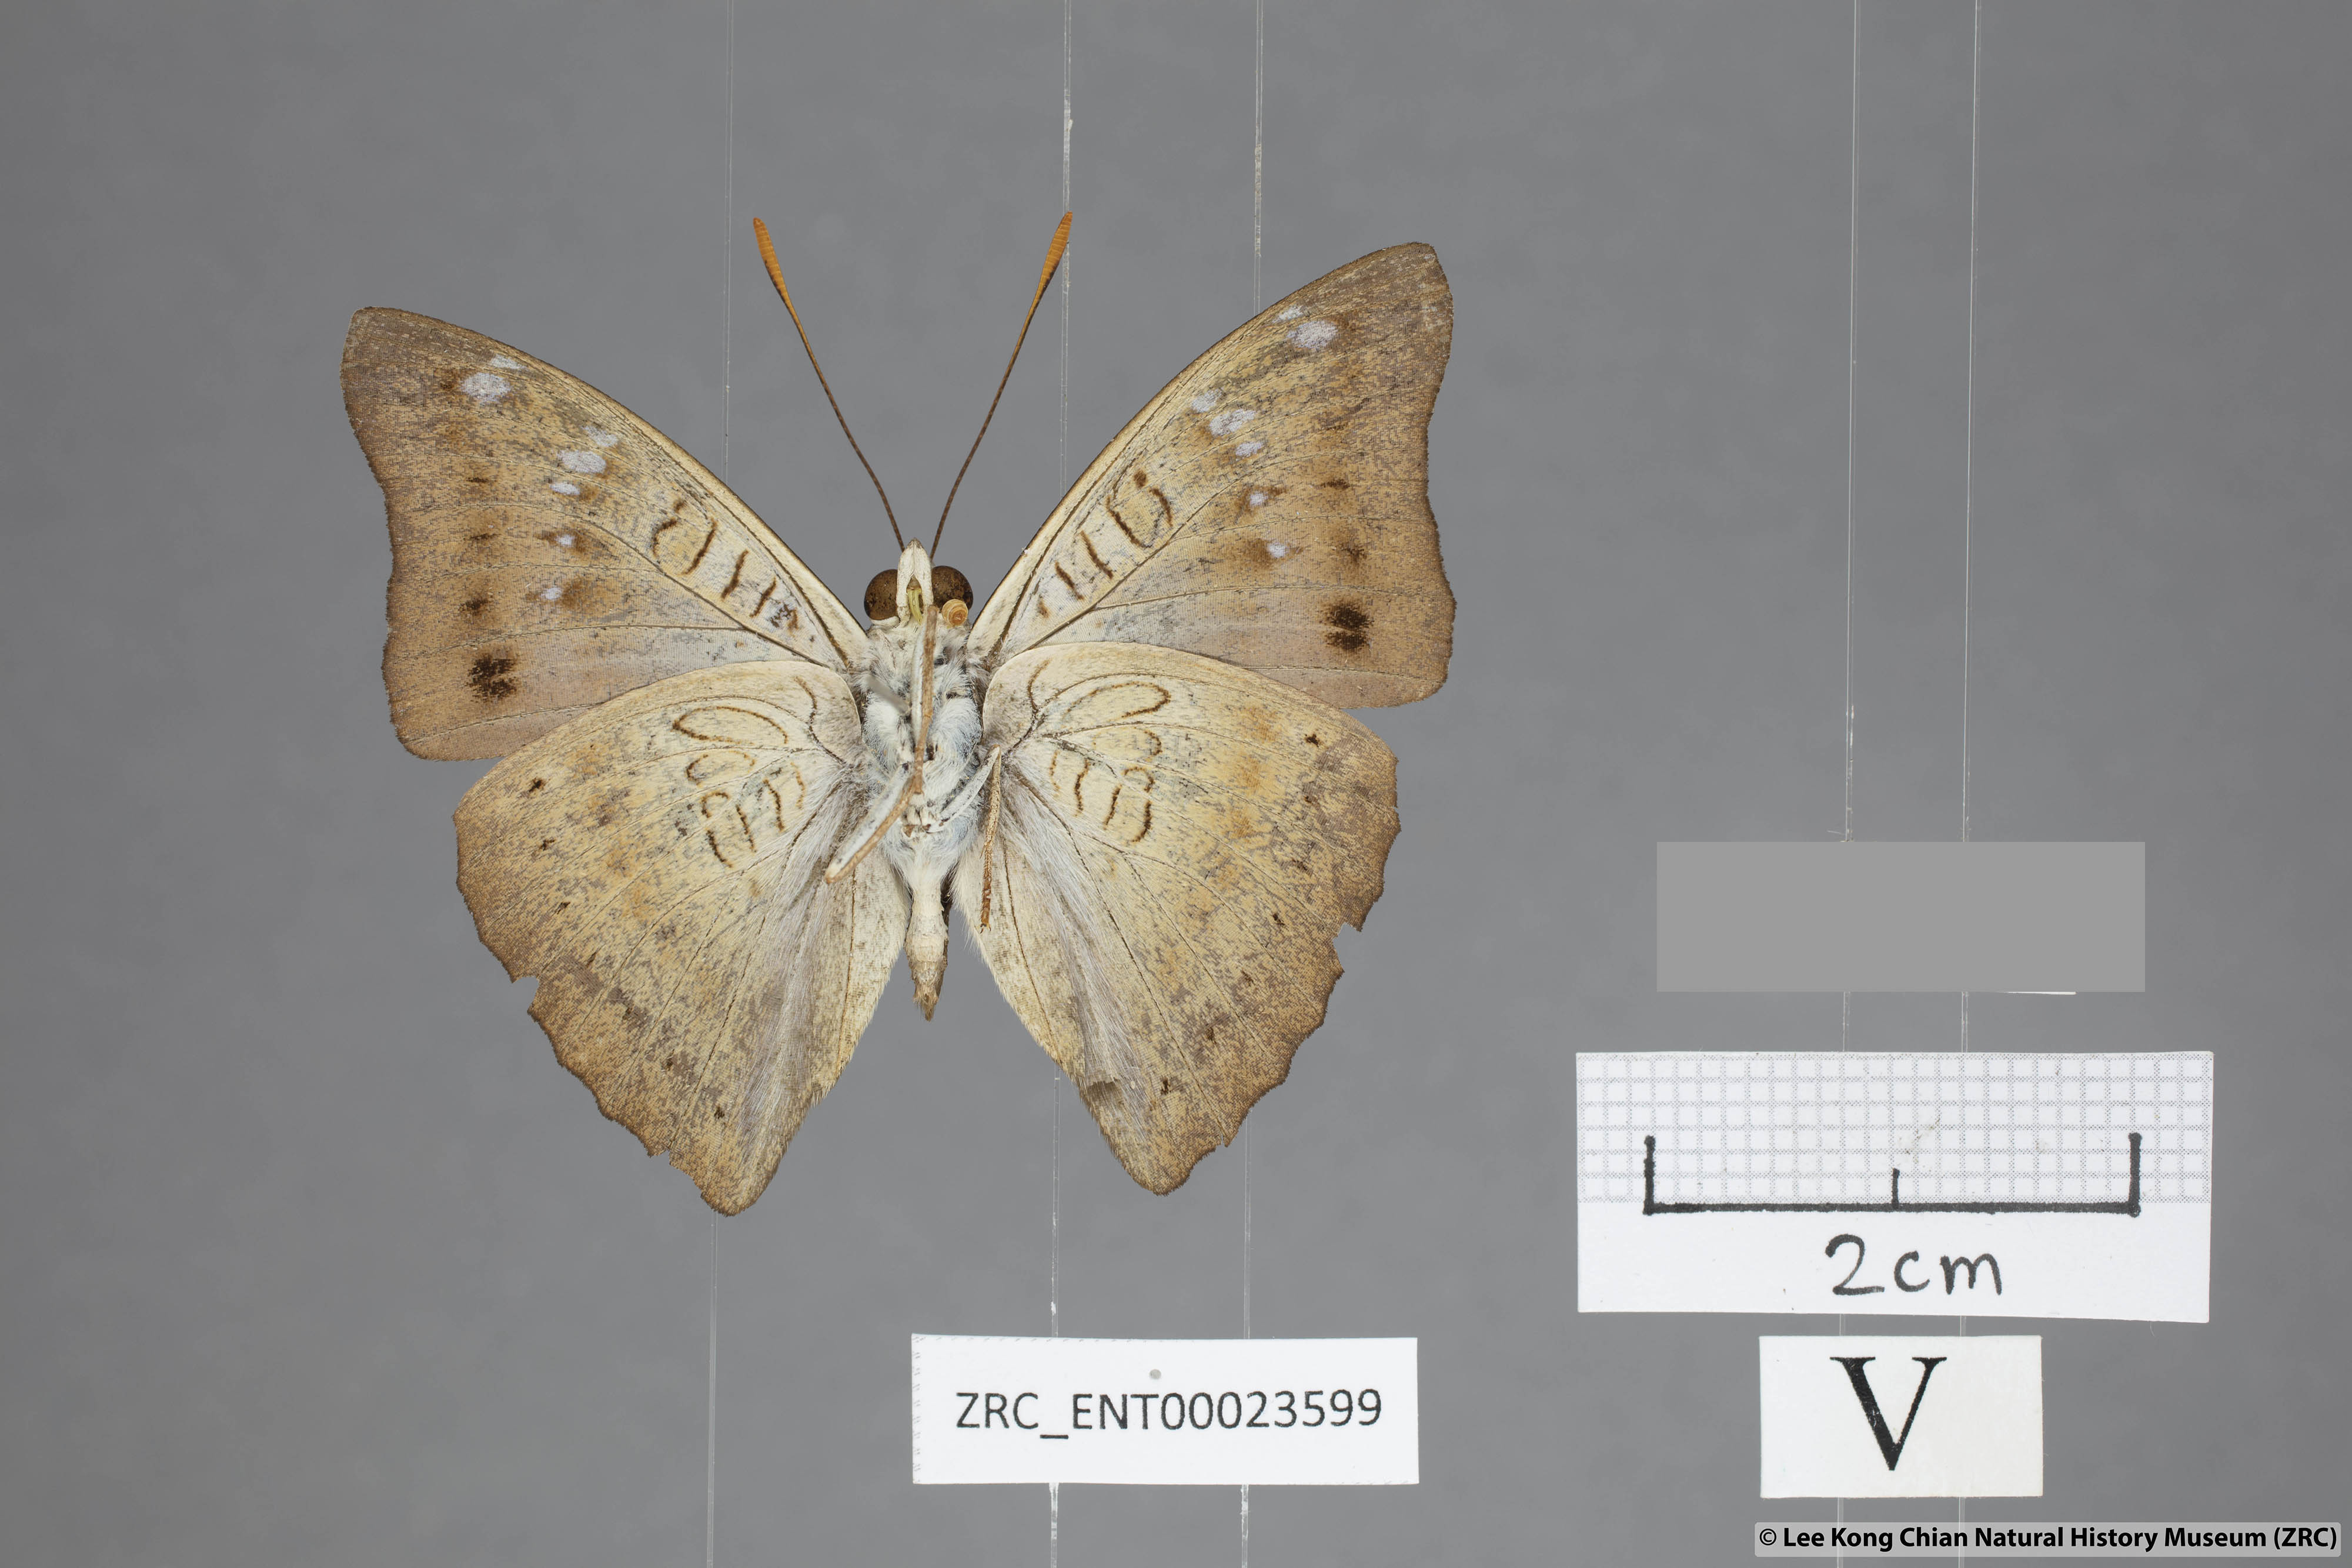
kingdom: Animalia
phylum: Arthropoda
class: Insecta
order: Lepidoptera
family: Nymphalidae
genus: Euthalia
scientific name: Euthalia agnis
